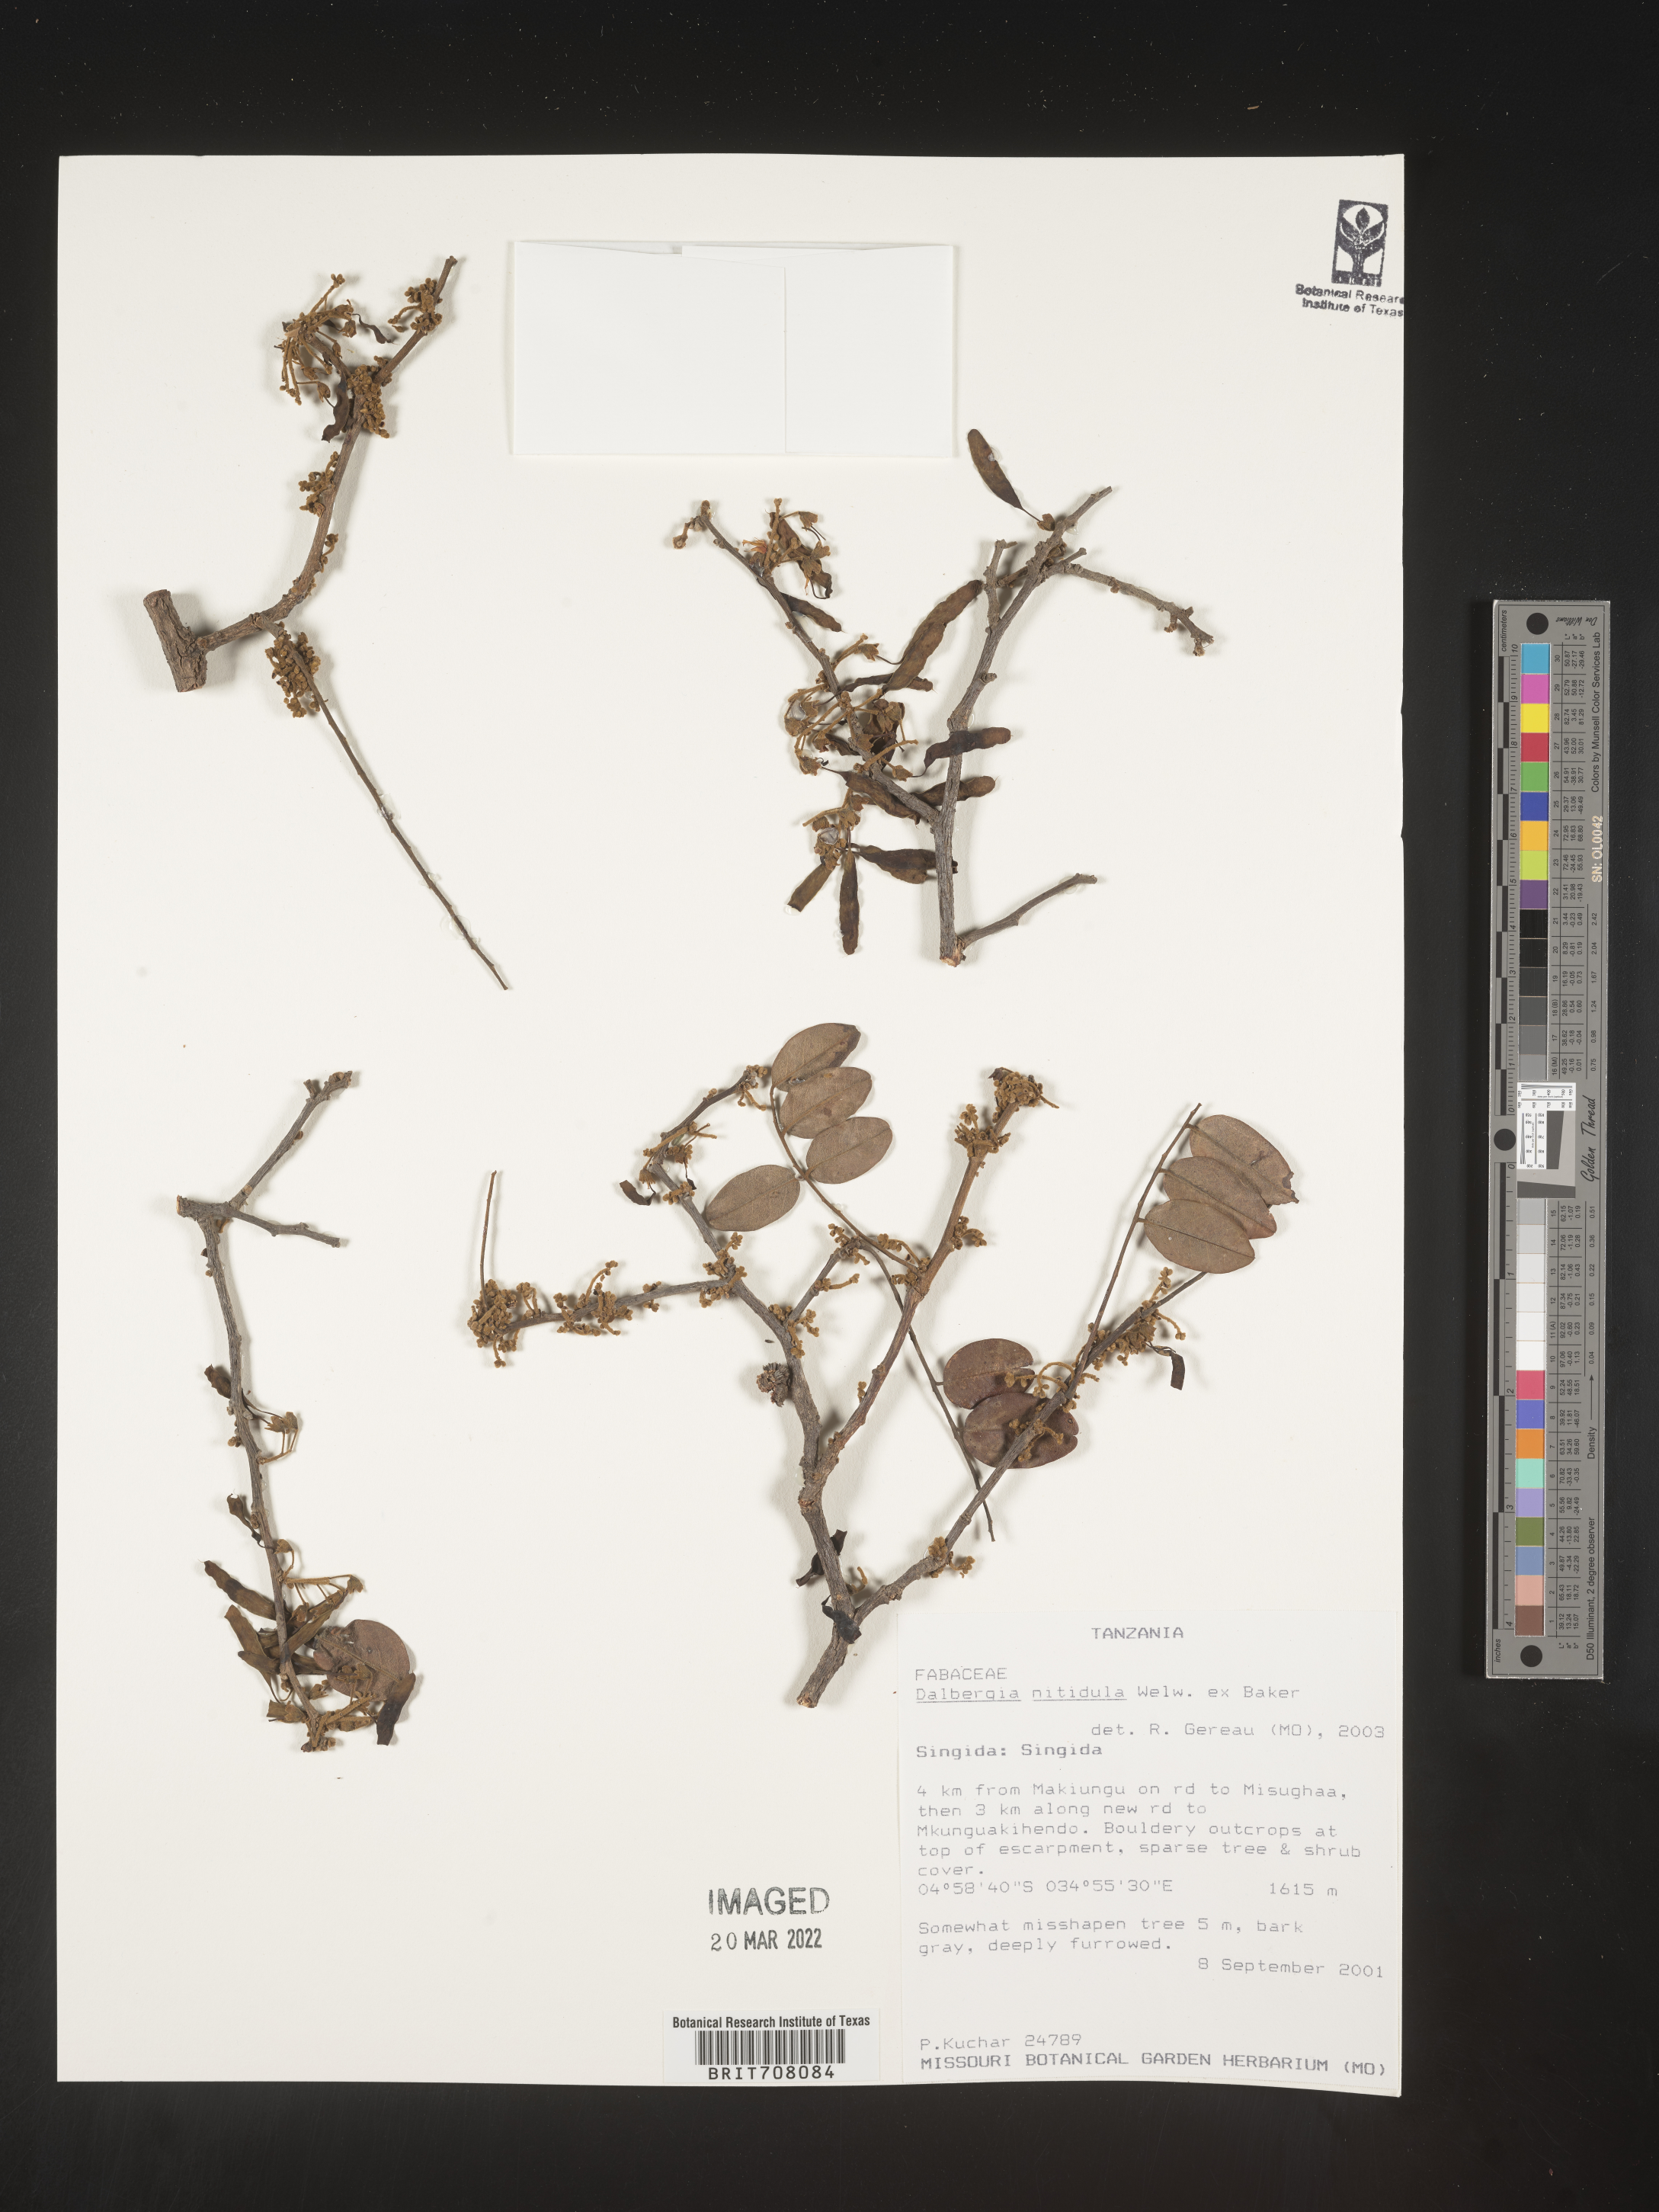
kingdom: Plantae
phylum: Tracheophyta
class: Magnoliopsida
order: Fabales
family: Fabaceae
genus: Dalbergia
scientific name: Dalbergia
